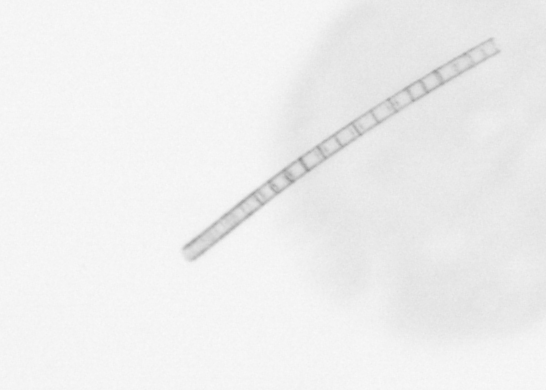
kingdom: Chromista
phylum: Ochrophyta
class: Bacillariophyceae
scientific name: Bacillariophyceae
